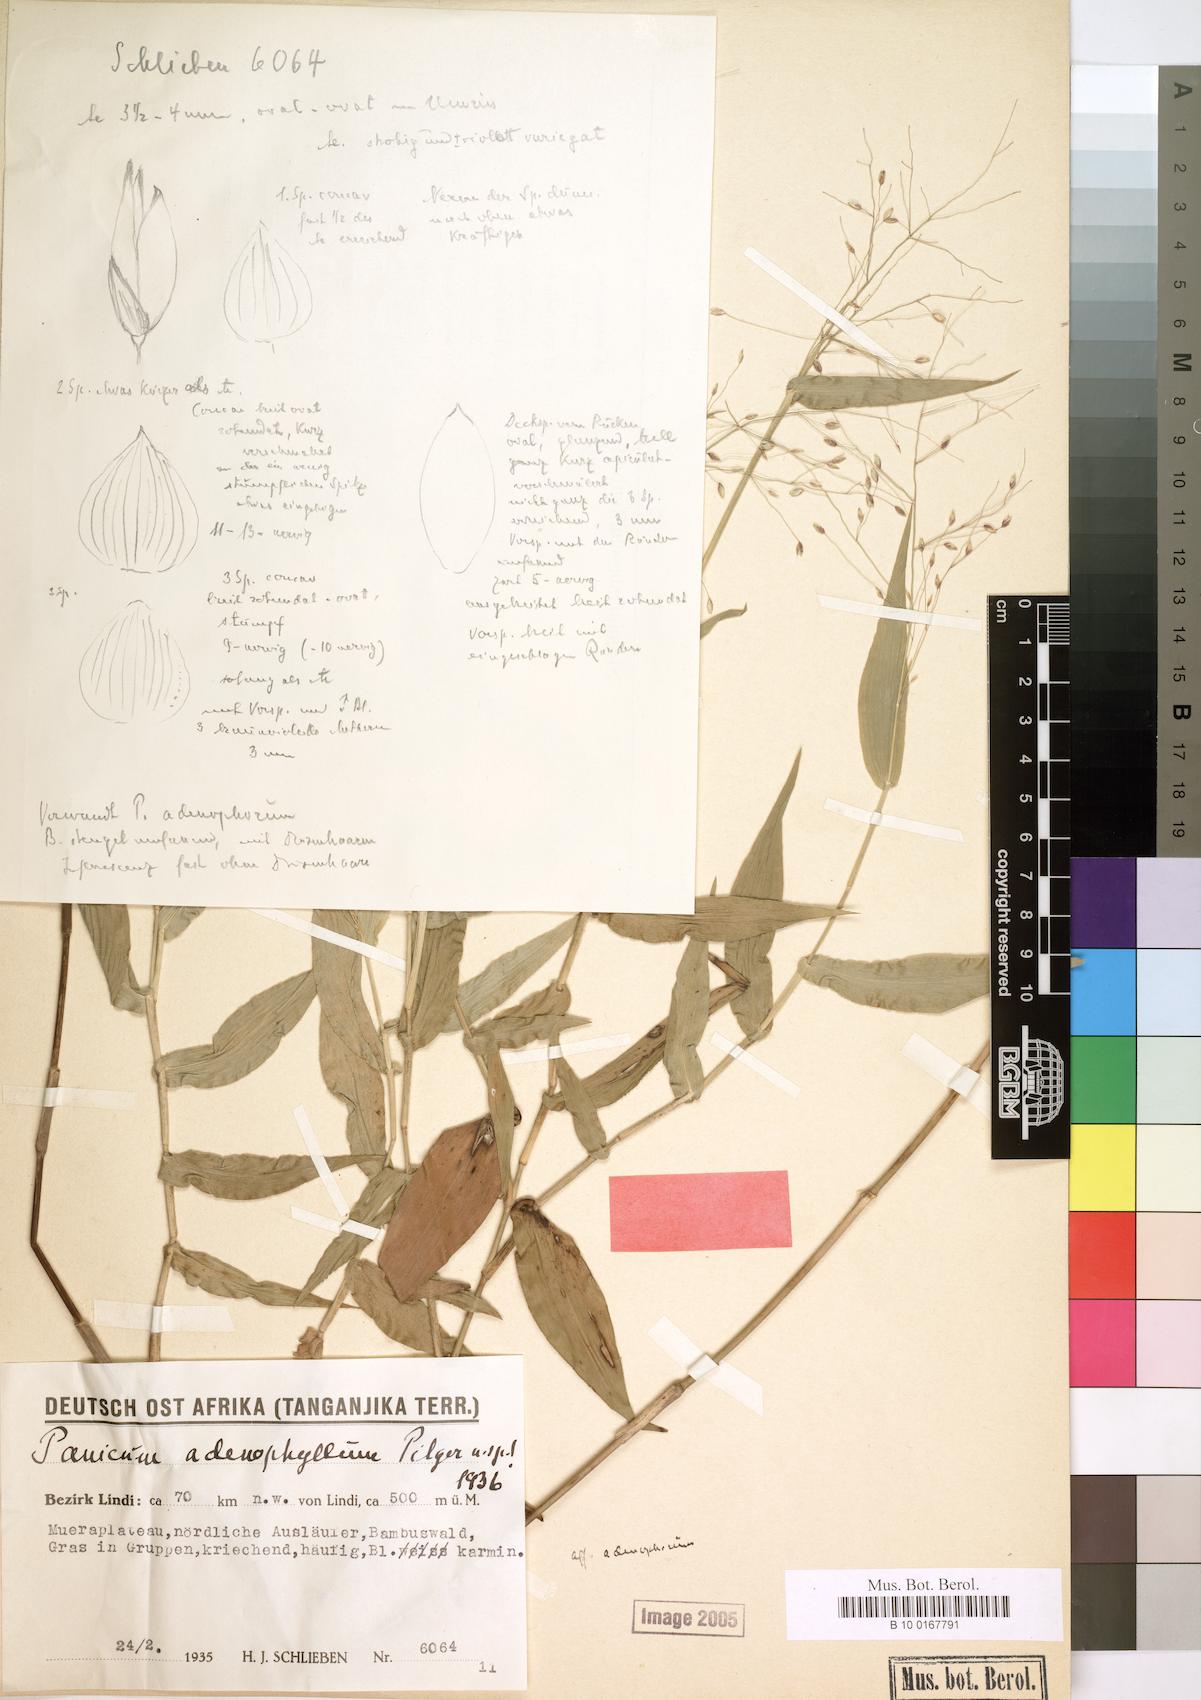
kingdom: Plantae
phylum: Tracheophyta
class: Liliopsida
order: Poales
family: Poaceae
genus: Adenochloa
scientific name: Adenochloa adenophora
